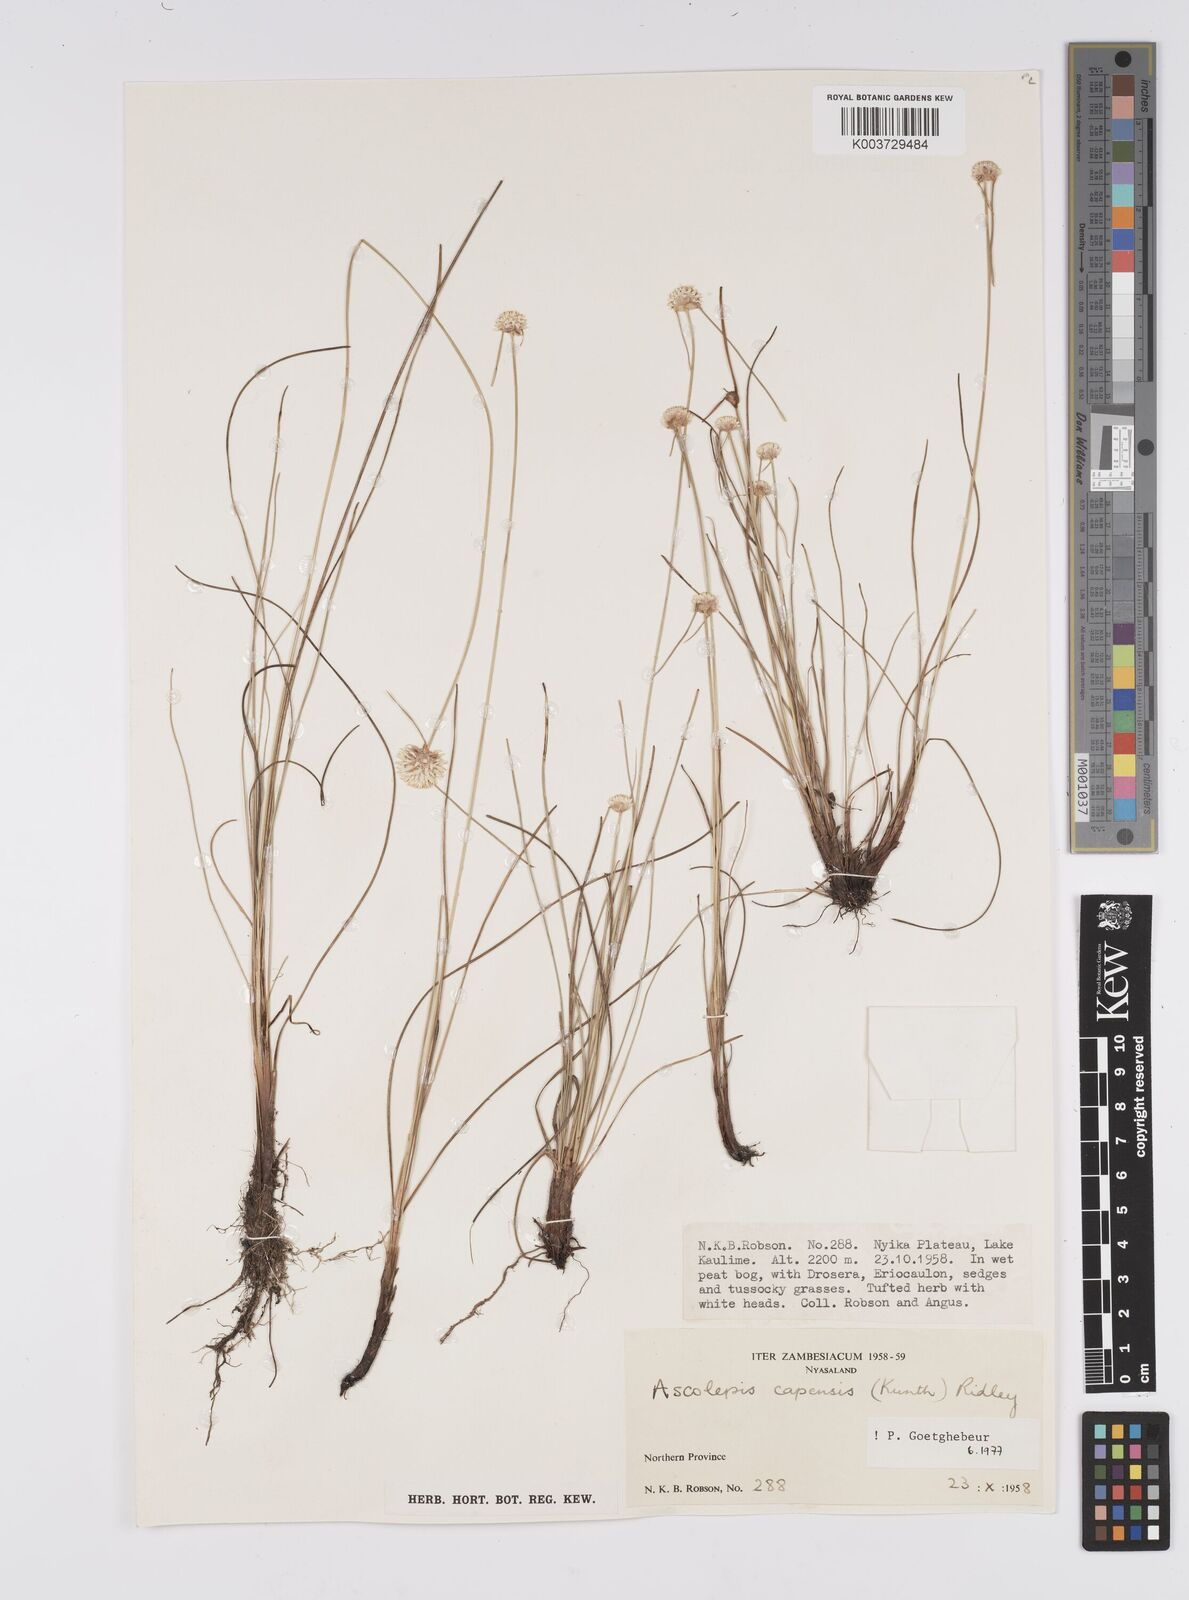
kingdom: Plantae
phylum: Tracheophyta
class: Liliopsida
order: Poales
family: Cyperaceae
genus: Cyperus
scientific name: Cyperus
